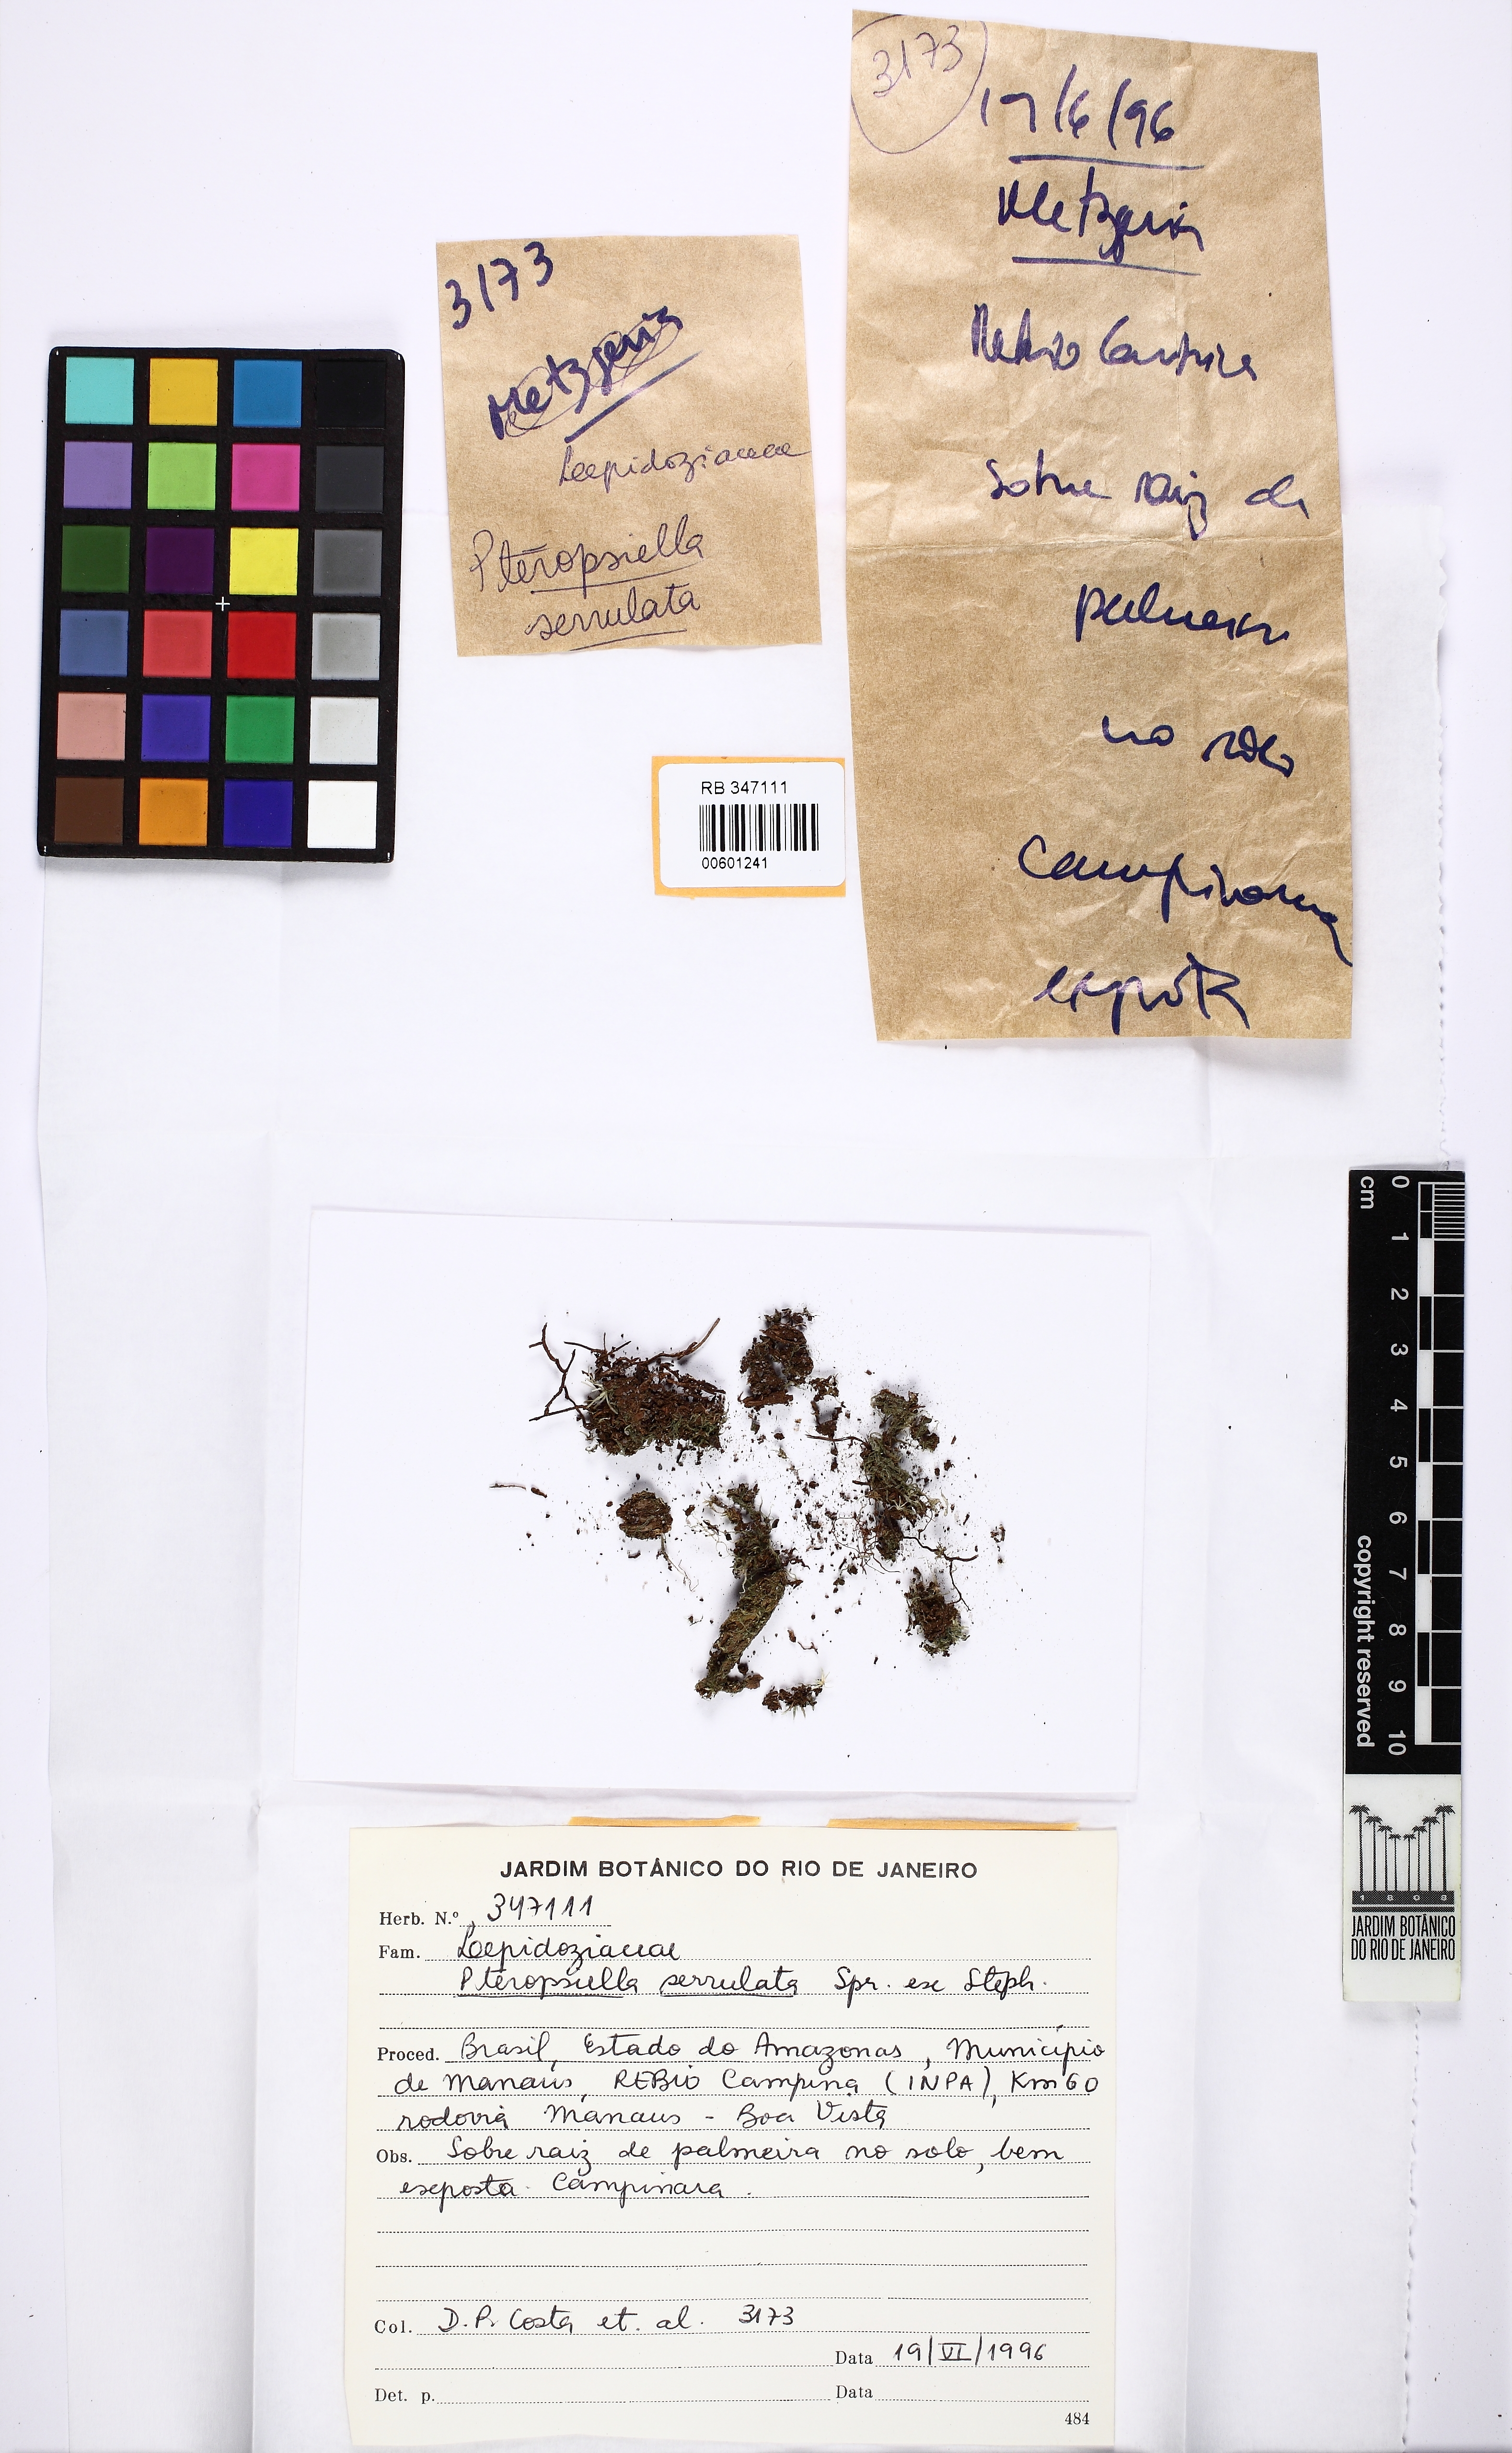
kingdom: Plantae
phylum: Marchantiophyta
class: Jungermanniopsida
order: Jungermanniales
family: Lepidoziaceae
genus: Pteropsiella
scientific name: Pteropsiella metzgeriiformis
